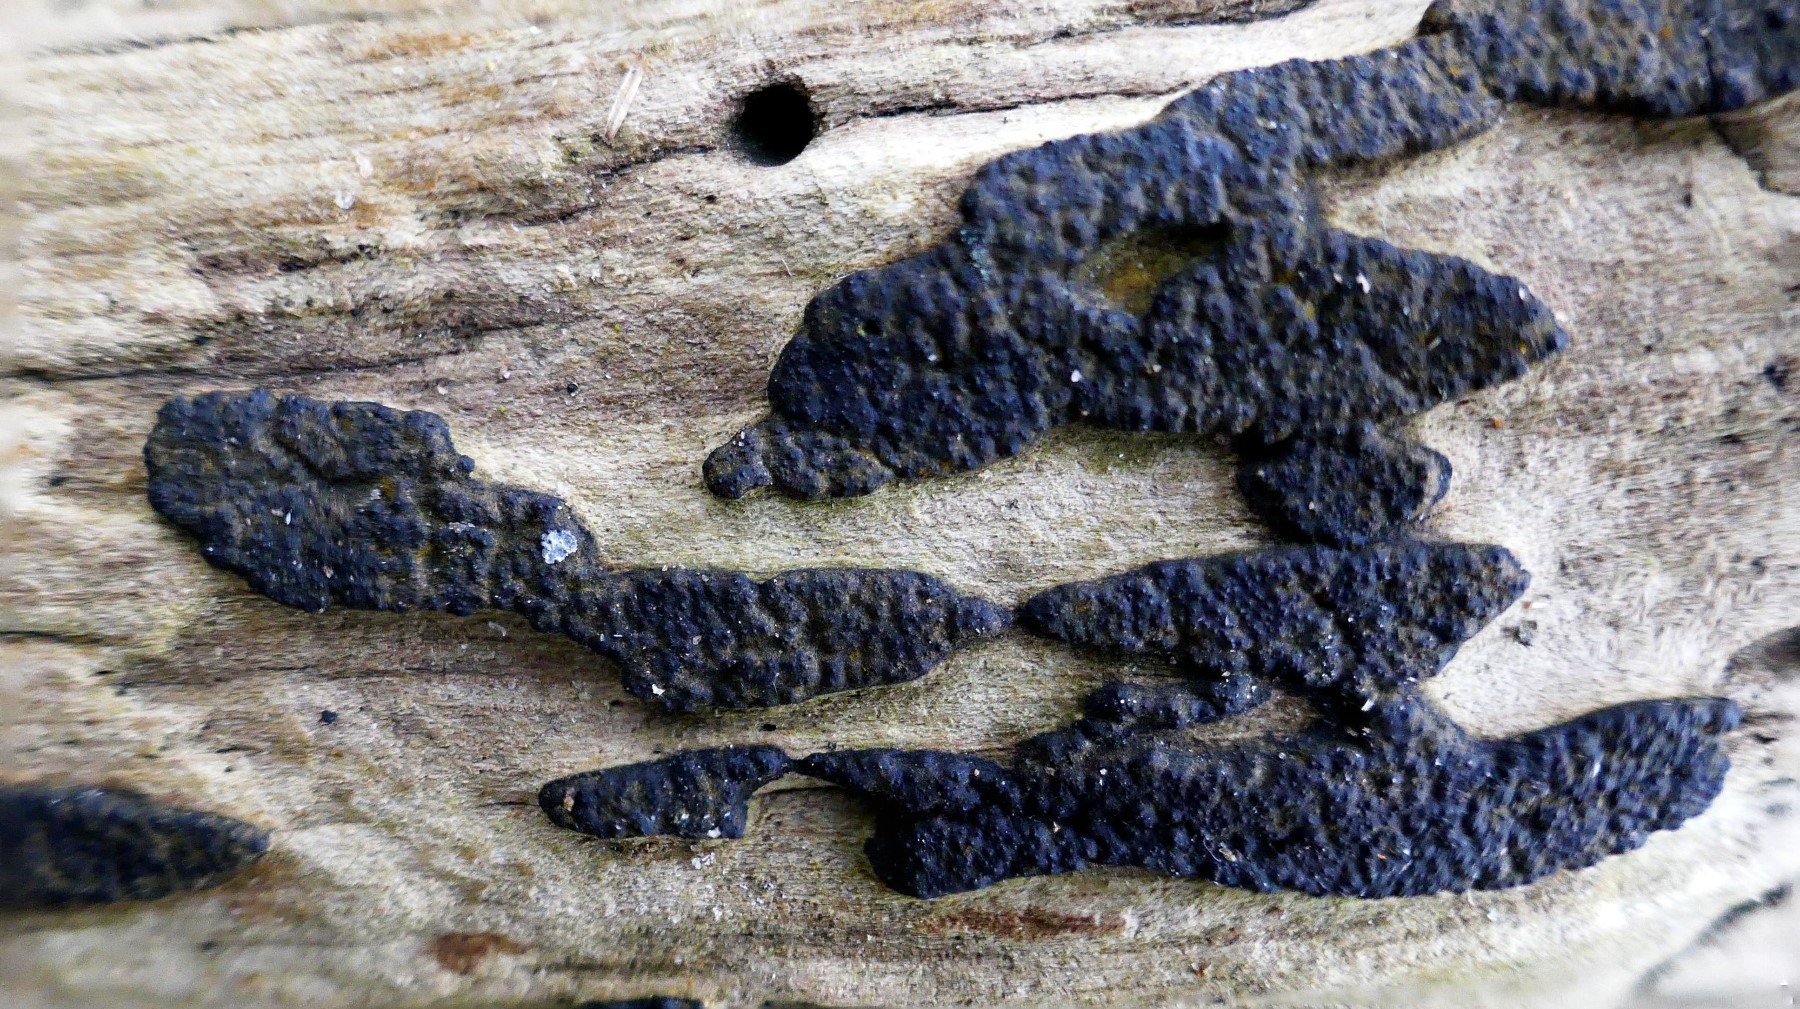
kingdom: Fungi
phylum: Ascomycota
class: Sordariomycetes
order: Xylariales
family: Xylariaceae
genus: Nemania
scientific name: Nemania
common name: kuldyne
